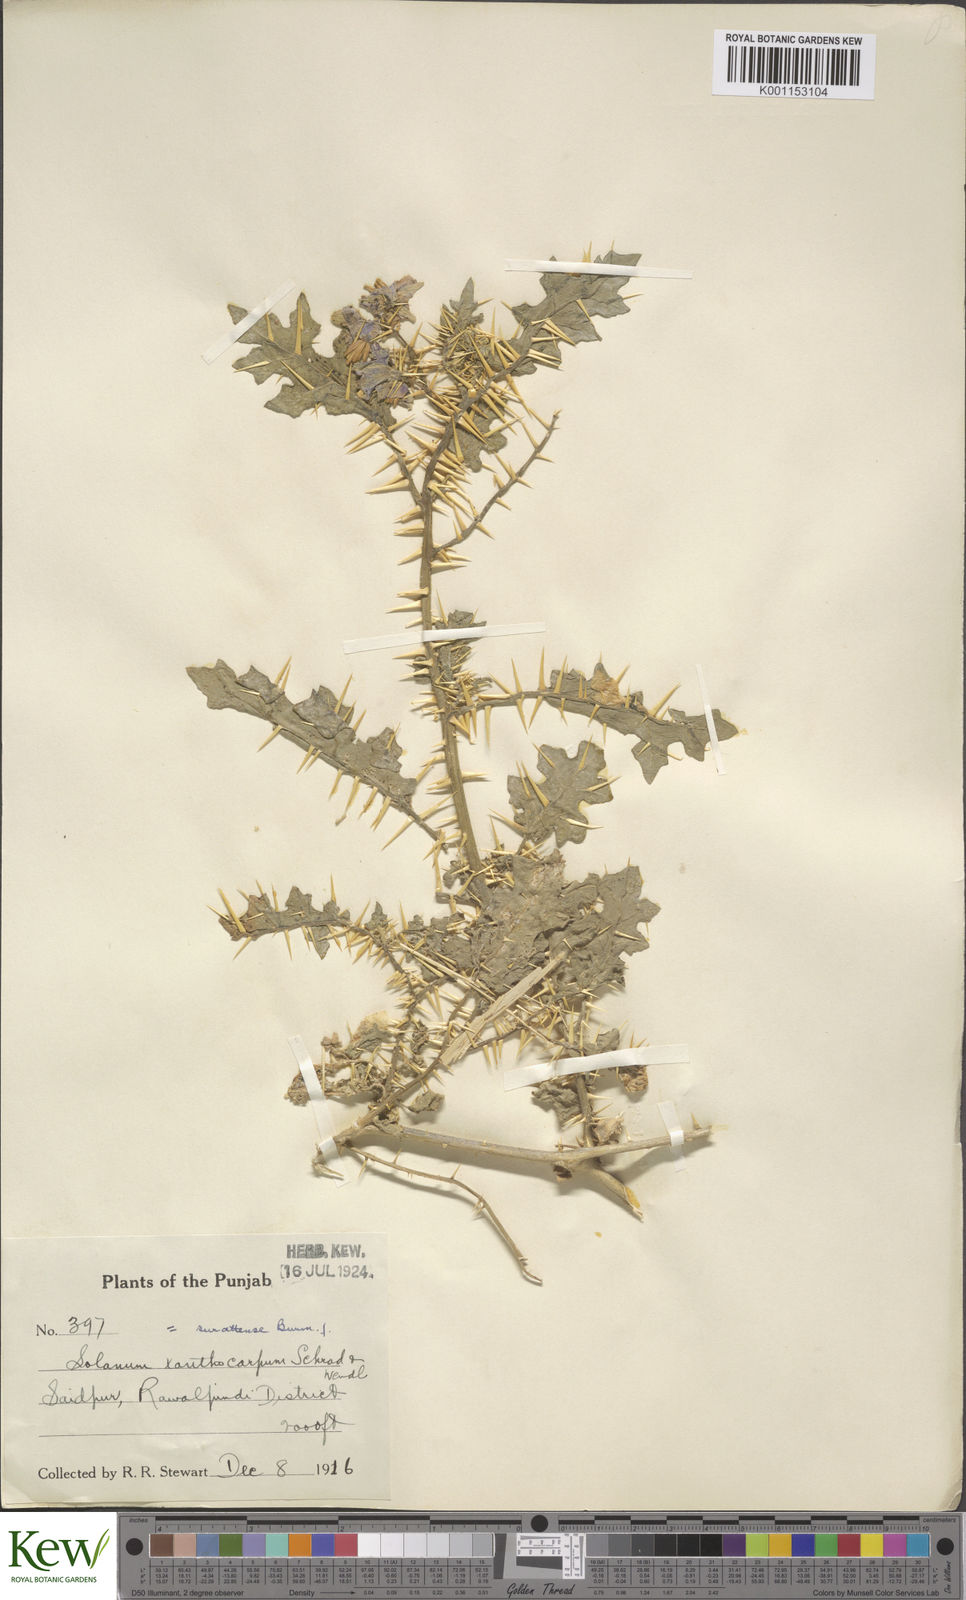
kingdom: Plantae
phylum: Tracheophyta
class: Magnoliopsida
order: Solanales
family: Solanaceae
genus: Solanum
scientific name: Solanum virginianum
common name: Surattense nightshade
